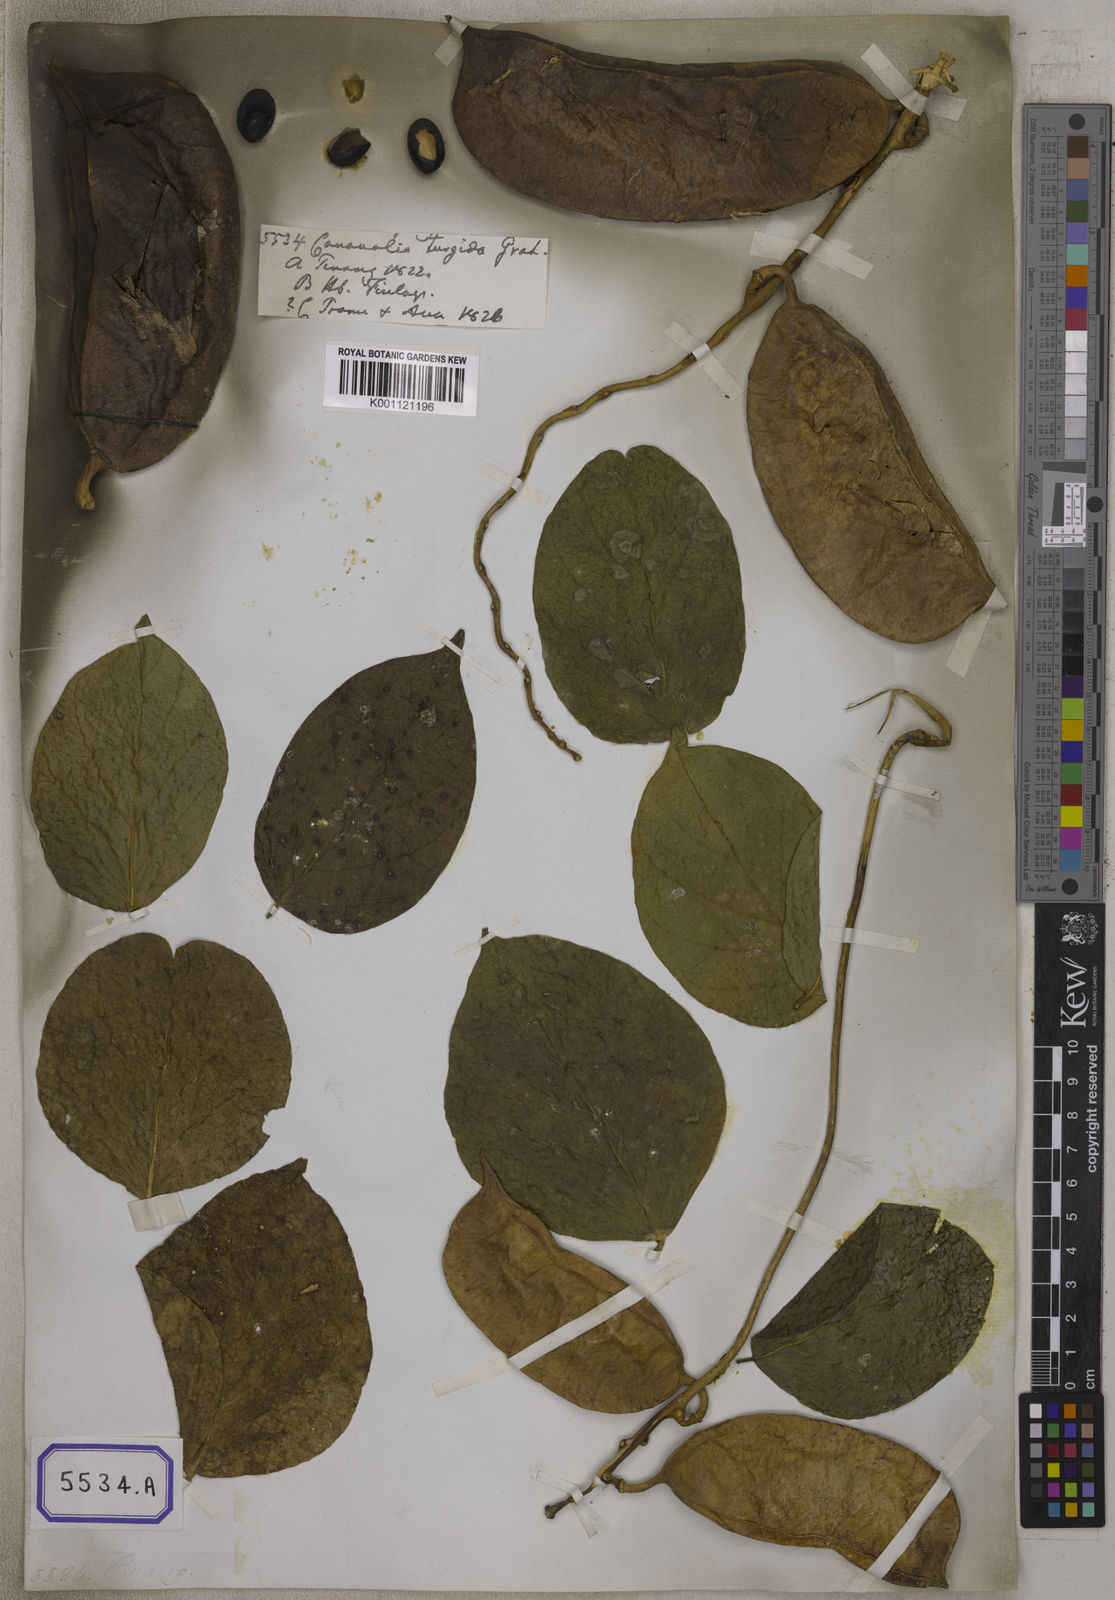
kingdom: Plantae
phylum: Tracheophyta
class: Magnoliopsida
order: Fabales
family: Fabaceae
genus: Canavalia
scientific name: Canavalia
